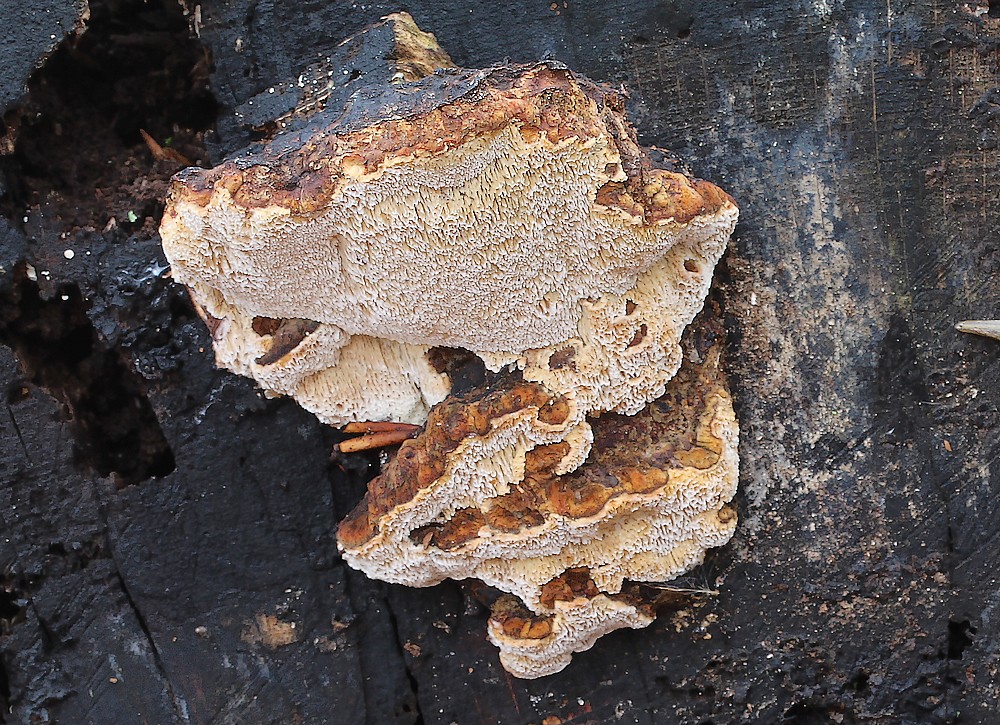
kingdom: Fungi
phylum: Basidiomycota
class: Agaricomycetes
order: Polyporales
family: Ischnodermataceae
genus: Ischnoderma
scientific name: Ischnoderma resinosum
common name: løv-tjæreporesvamp
